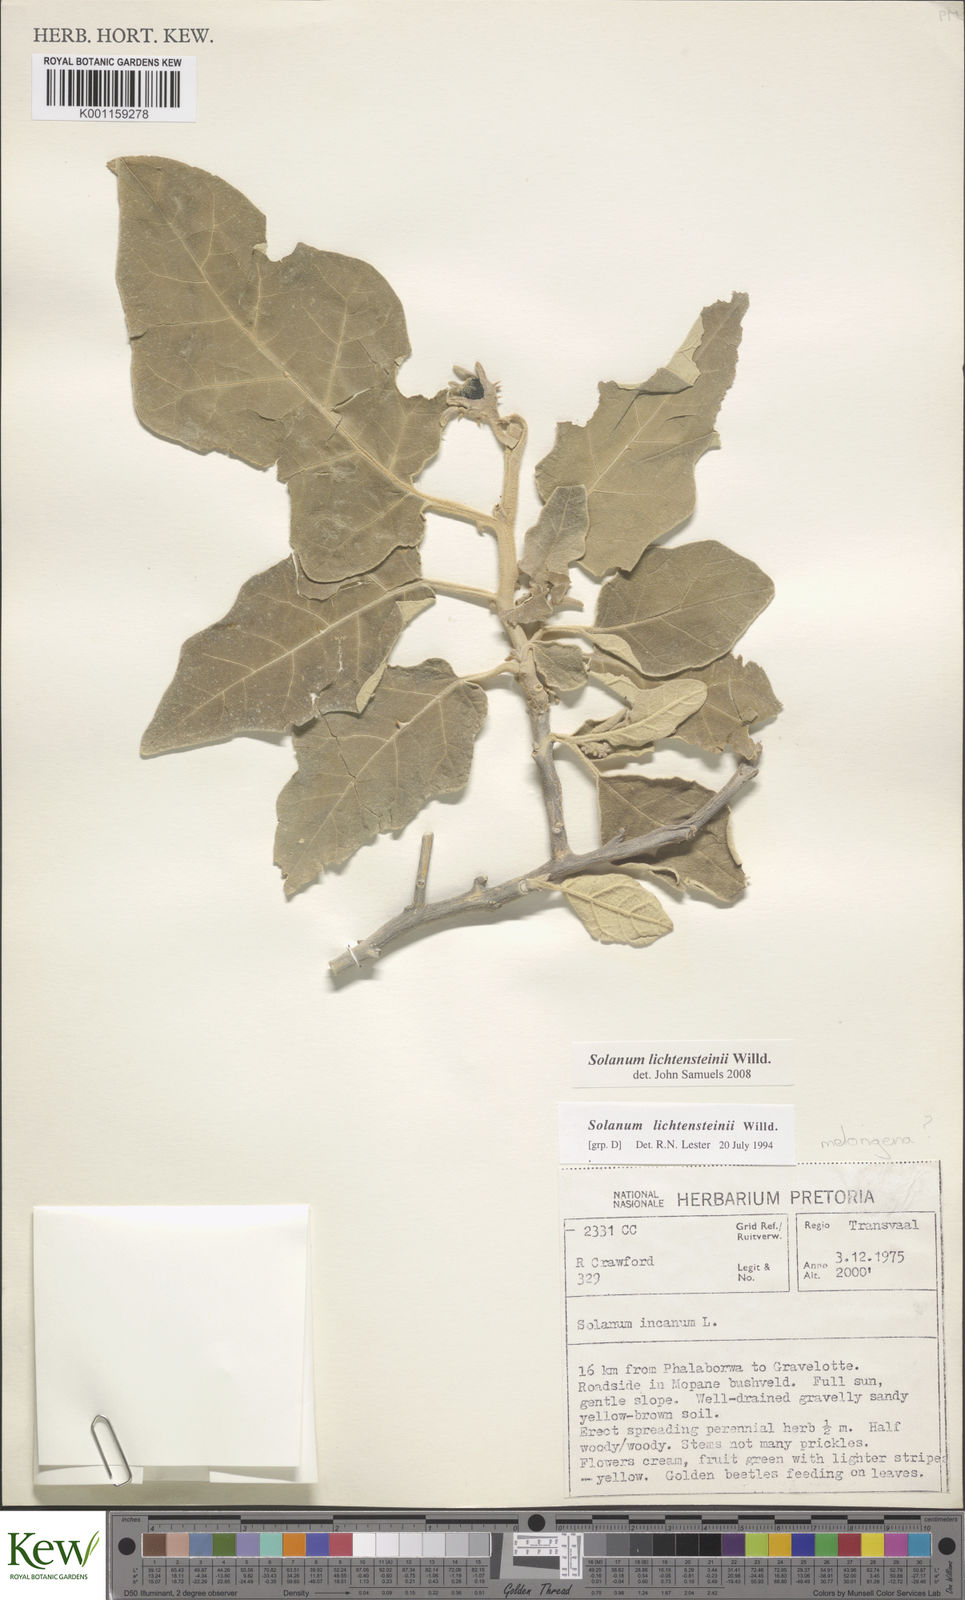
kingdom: Plantae
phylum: Tracheophyta
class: Magnoliopsida
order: Solanales
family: Solanaceae
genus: Solanum
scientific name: Solanum lichtensteinii
